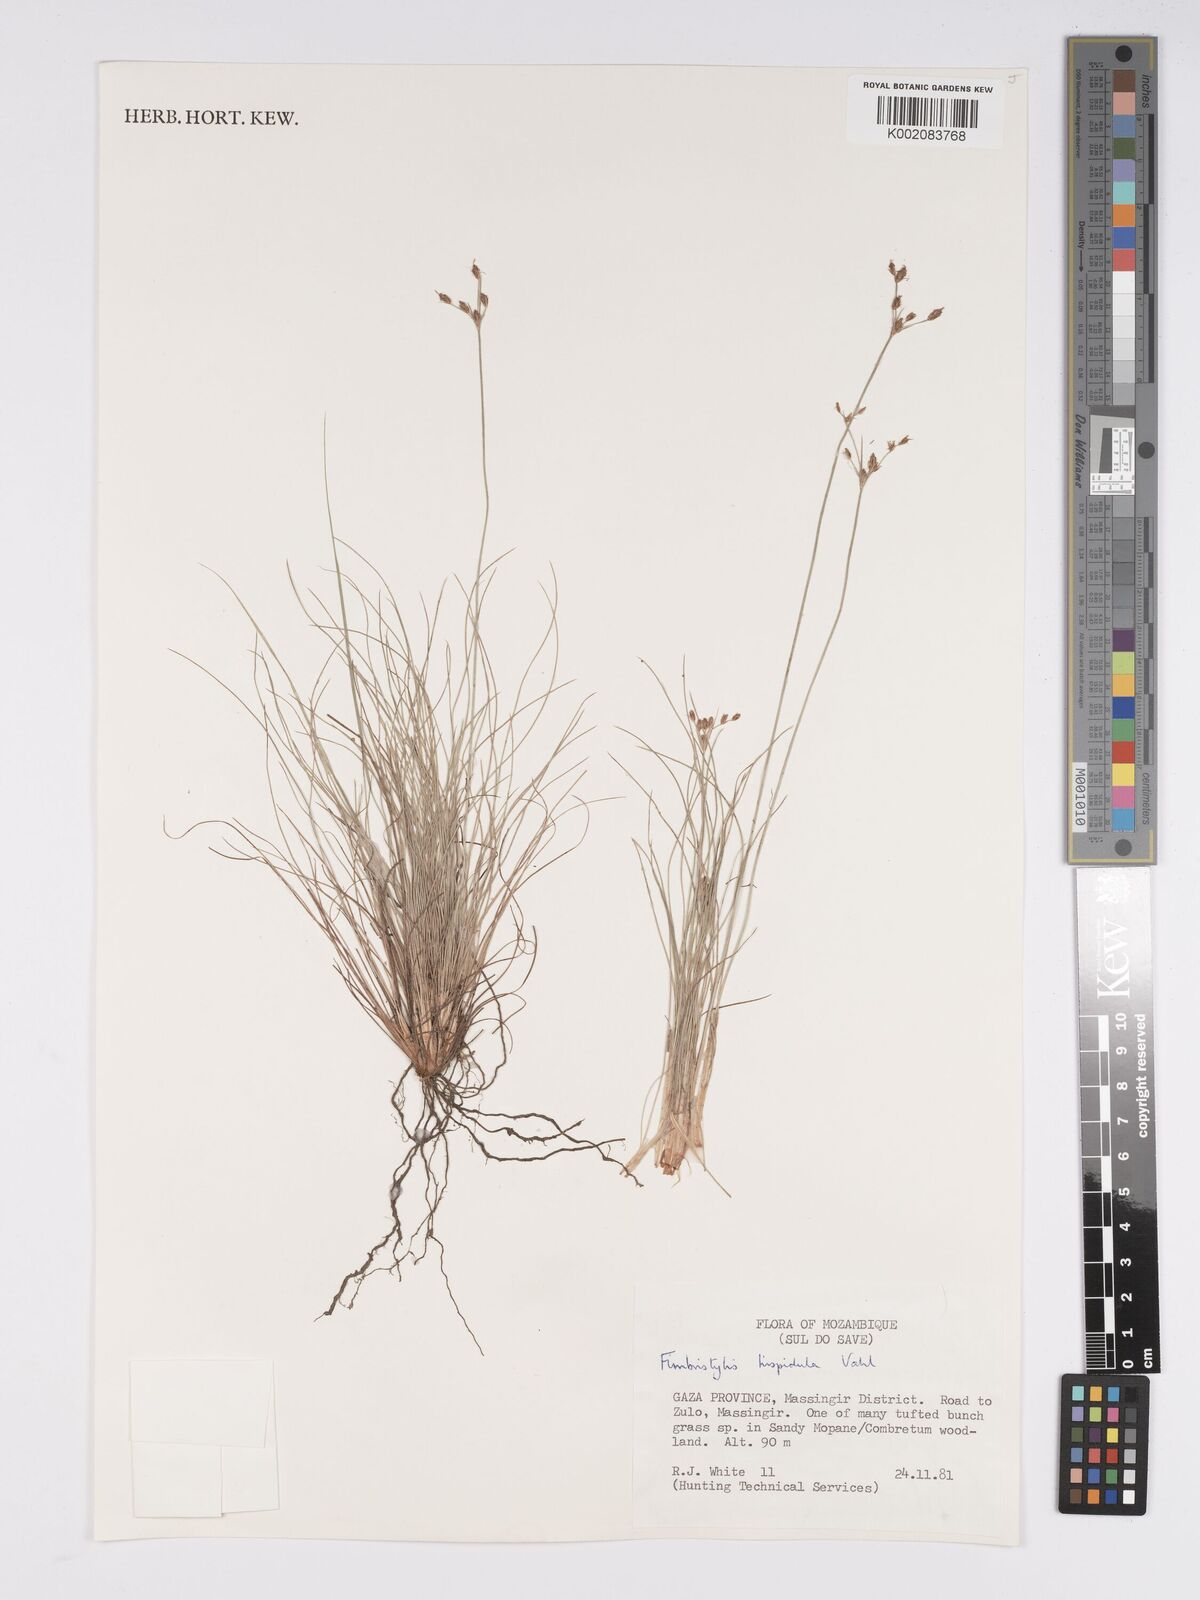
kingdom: Plantae
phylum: Tracheophyta
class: Liliopsida
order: Poales
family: Cyperaceae
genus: Bulbostylis
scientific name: Bulbostylis hispidula
